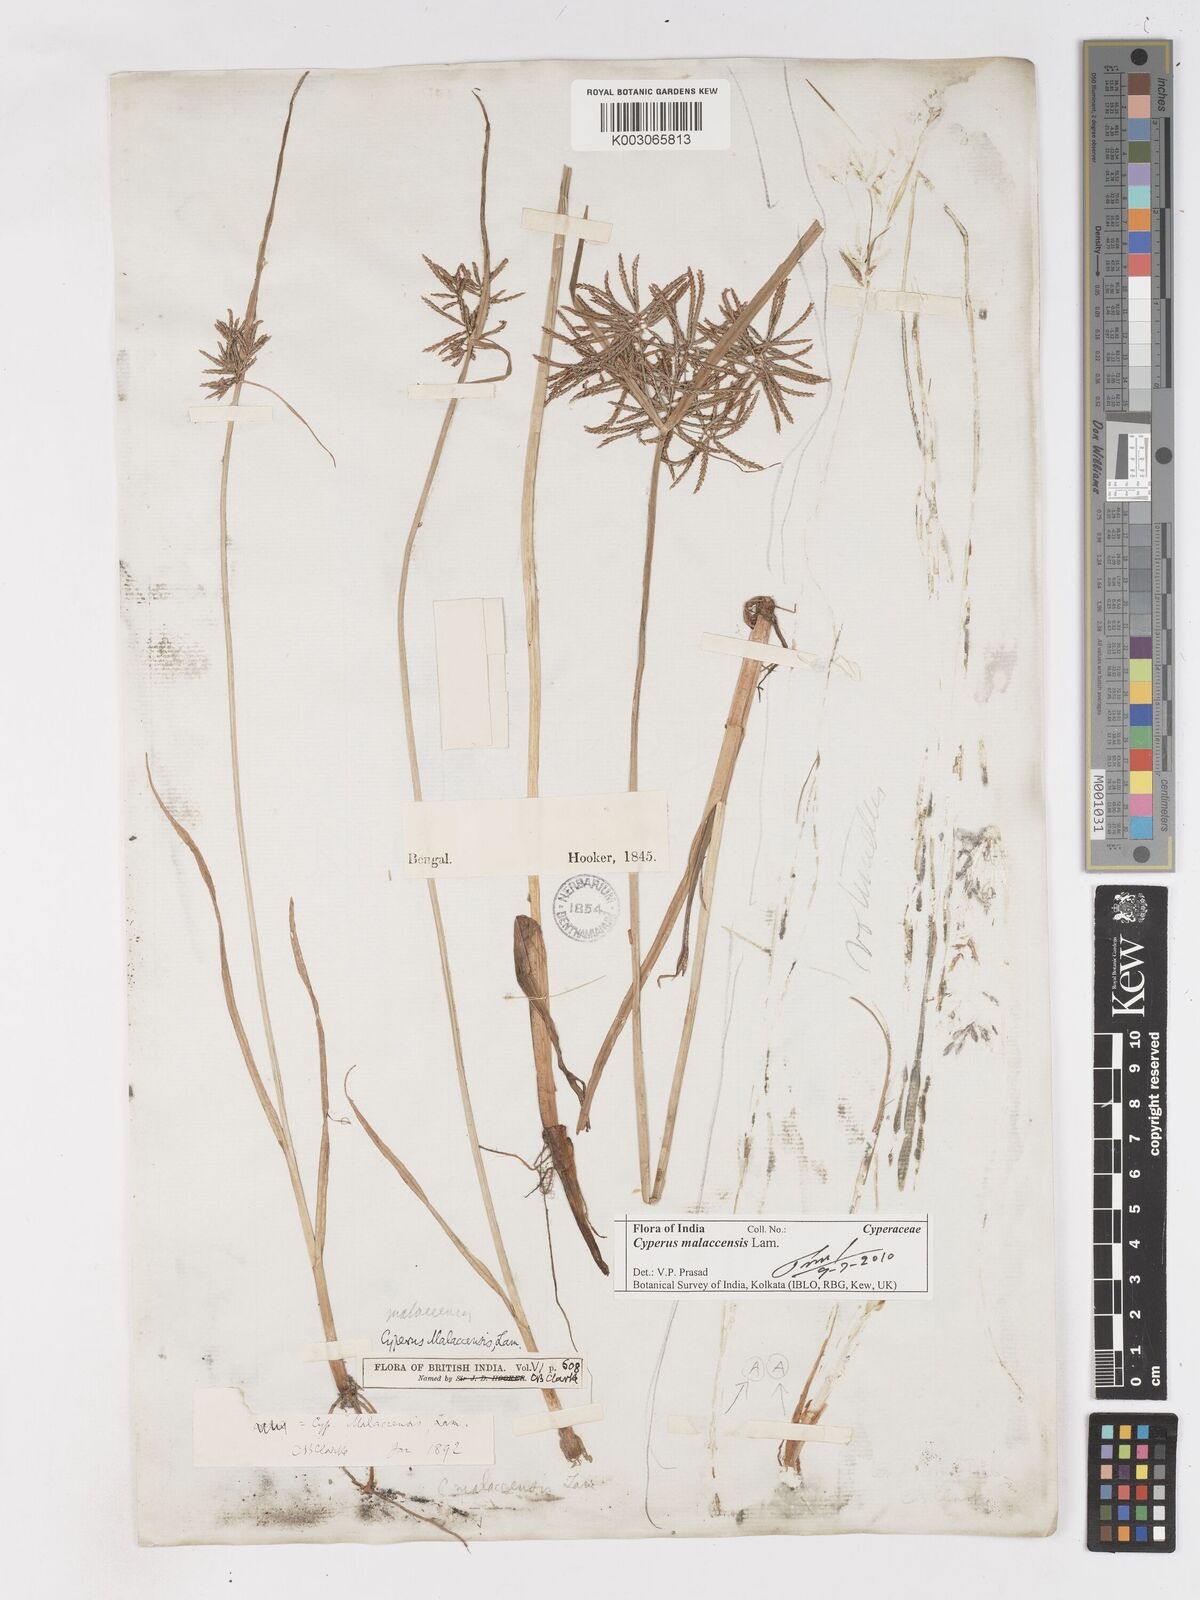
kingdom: Plantae
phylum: Tracheophyta
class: Liliopsida
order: Poales
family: Cyperaceae
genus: Cyperus
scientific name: Cyperus malaccensis
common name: Shichito matgrass
